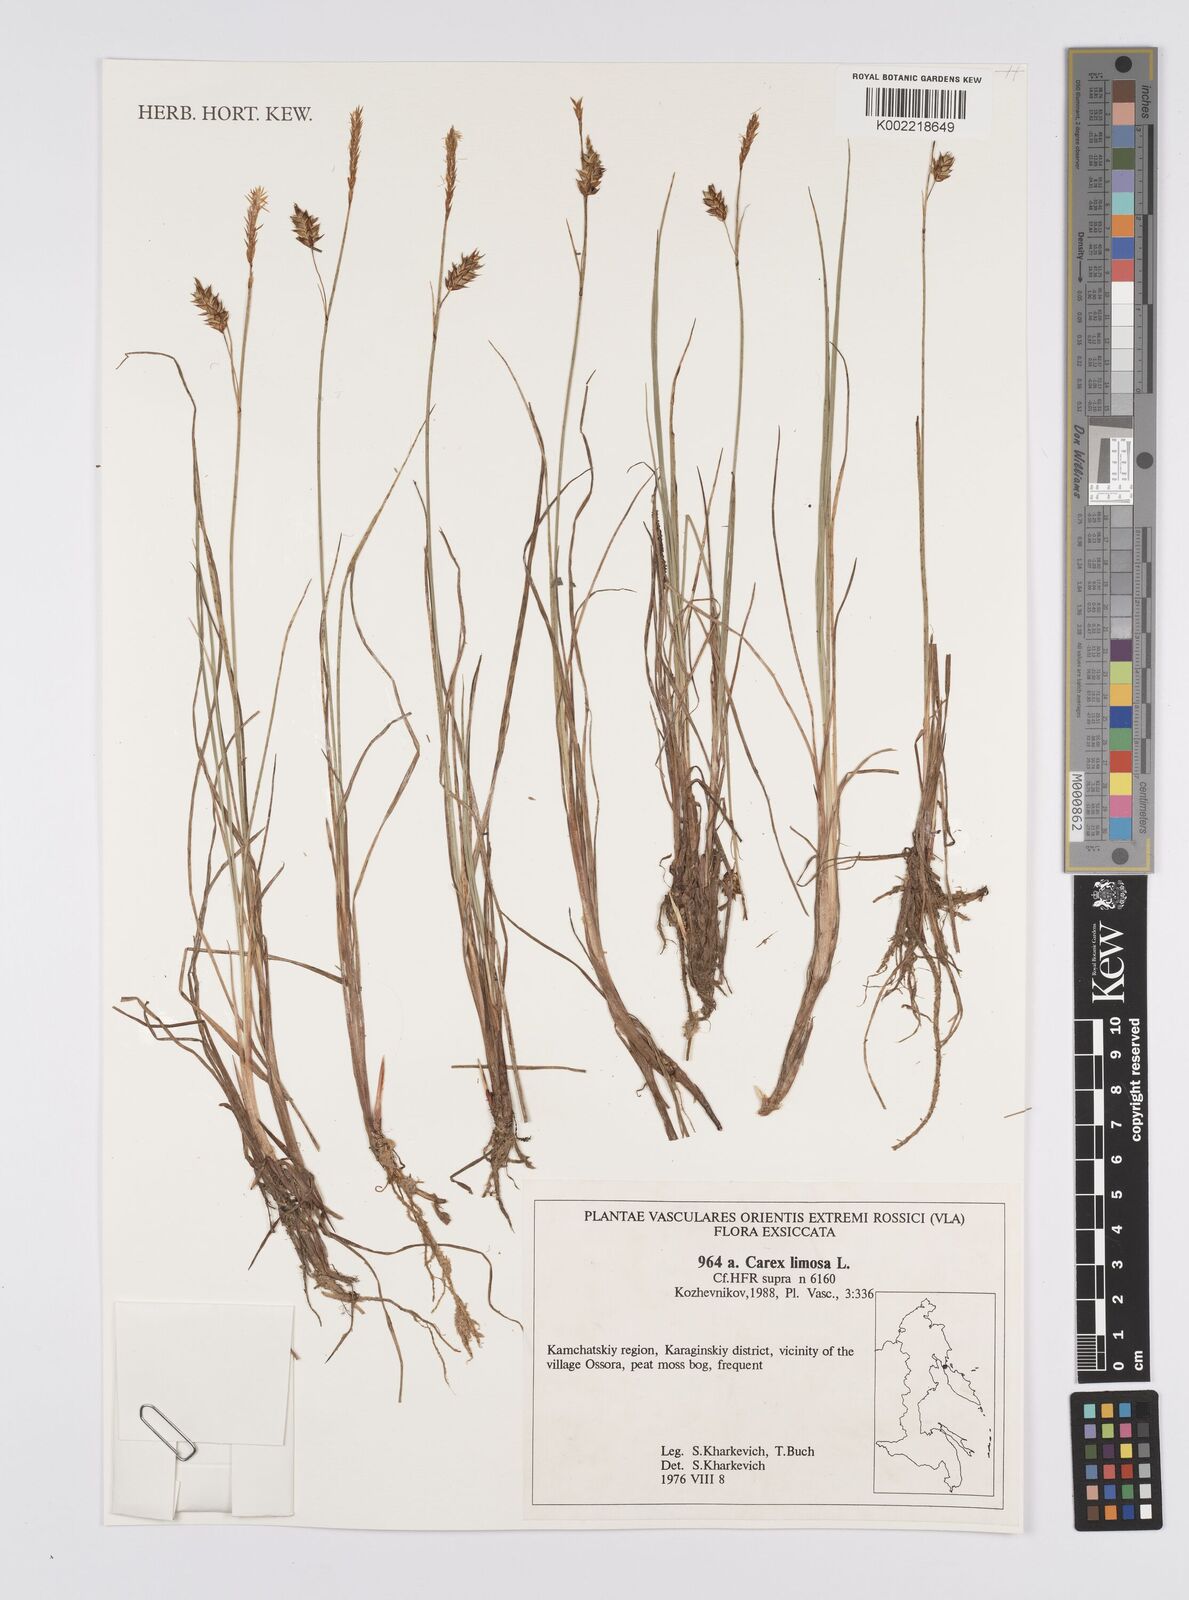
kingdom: Plantae
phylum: Tracheophyta
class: Liliopsida
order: Poales
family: Cyperaceae
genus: Carex
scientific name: Carex limosa
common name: Bog sedge
